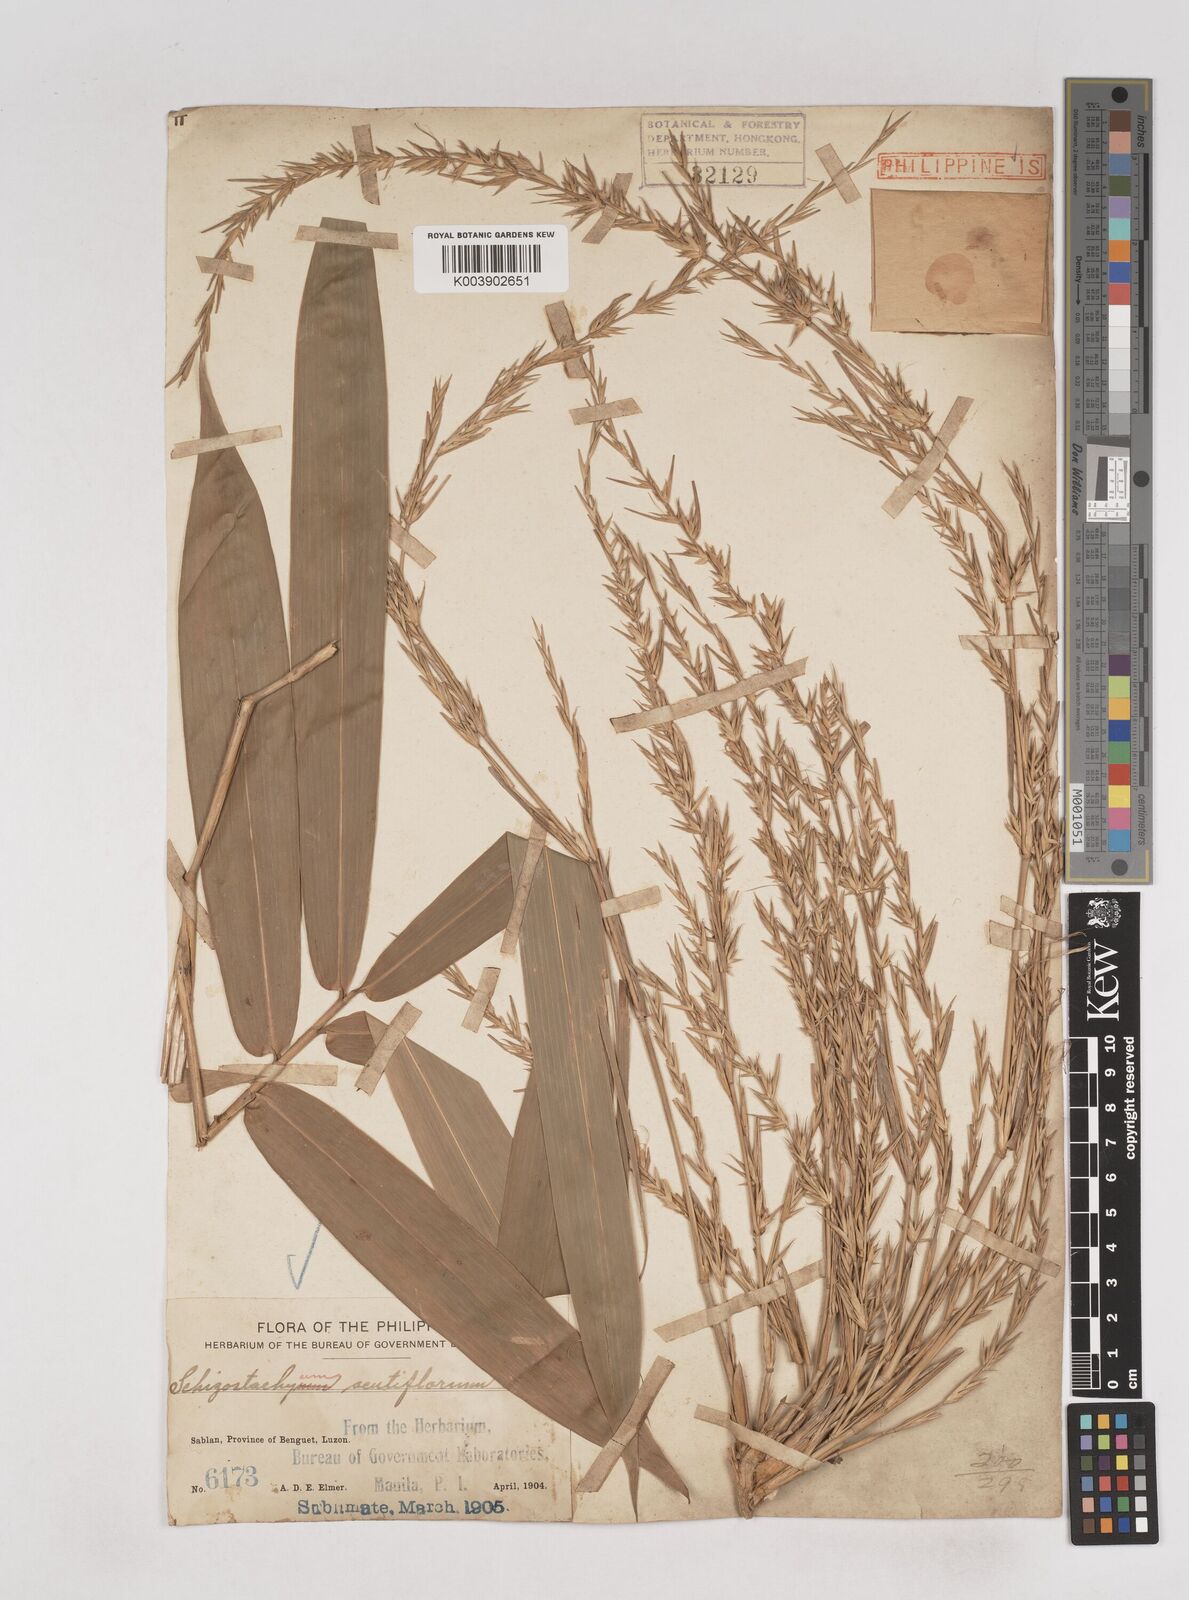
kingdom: Plantae
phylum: Tracheophyta
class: Liliopsida
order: Poales
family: Poaceae
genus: Schizostachyum
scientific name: Schizostachyum lumampao
